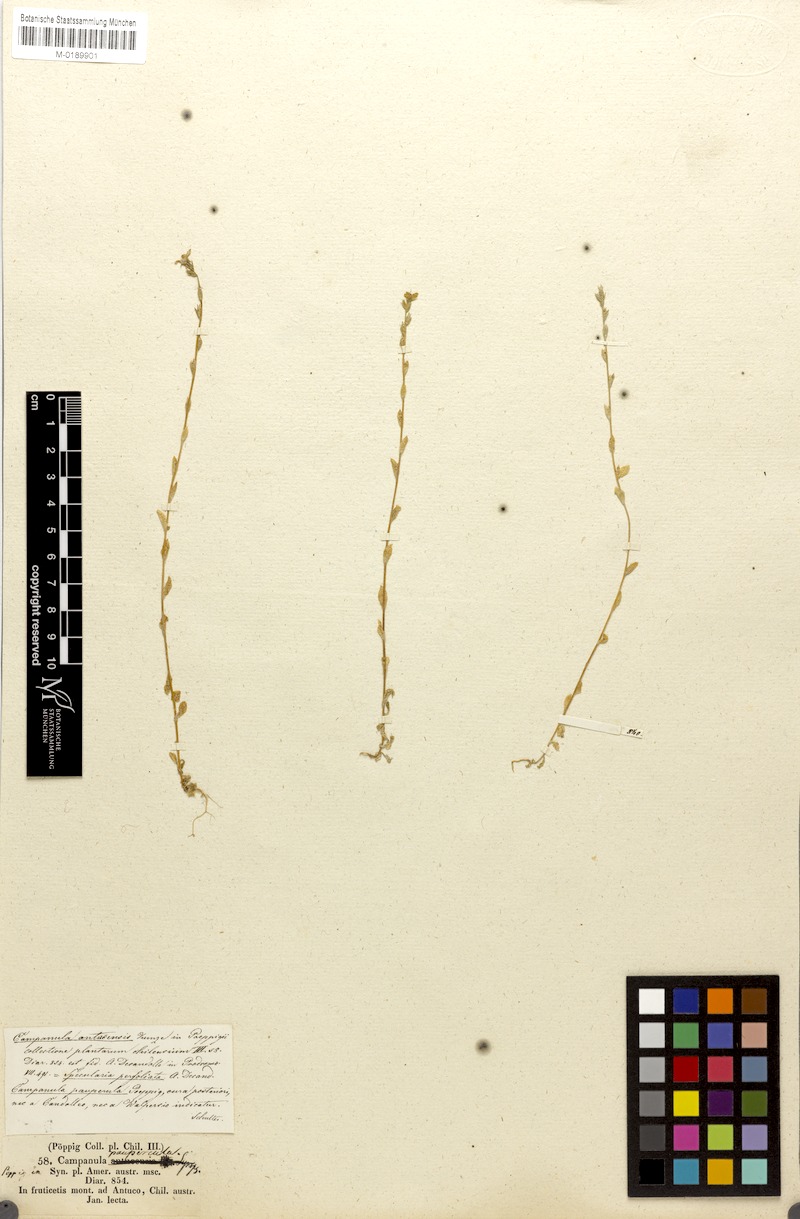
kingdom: Plantae
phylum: Tracheophyta
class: Magnoliopsida
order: Asterales
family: Campanulaceae
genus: Triodanis
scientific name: Triodanis perfoliata
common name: Clasping venus' looking-glass
